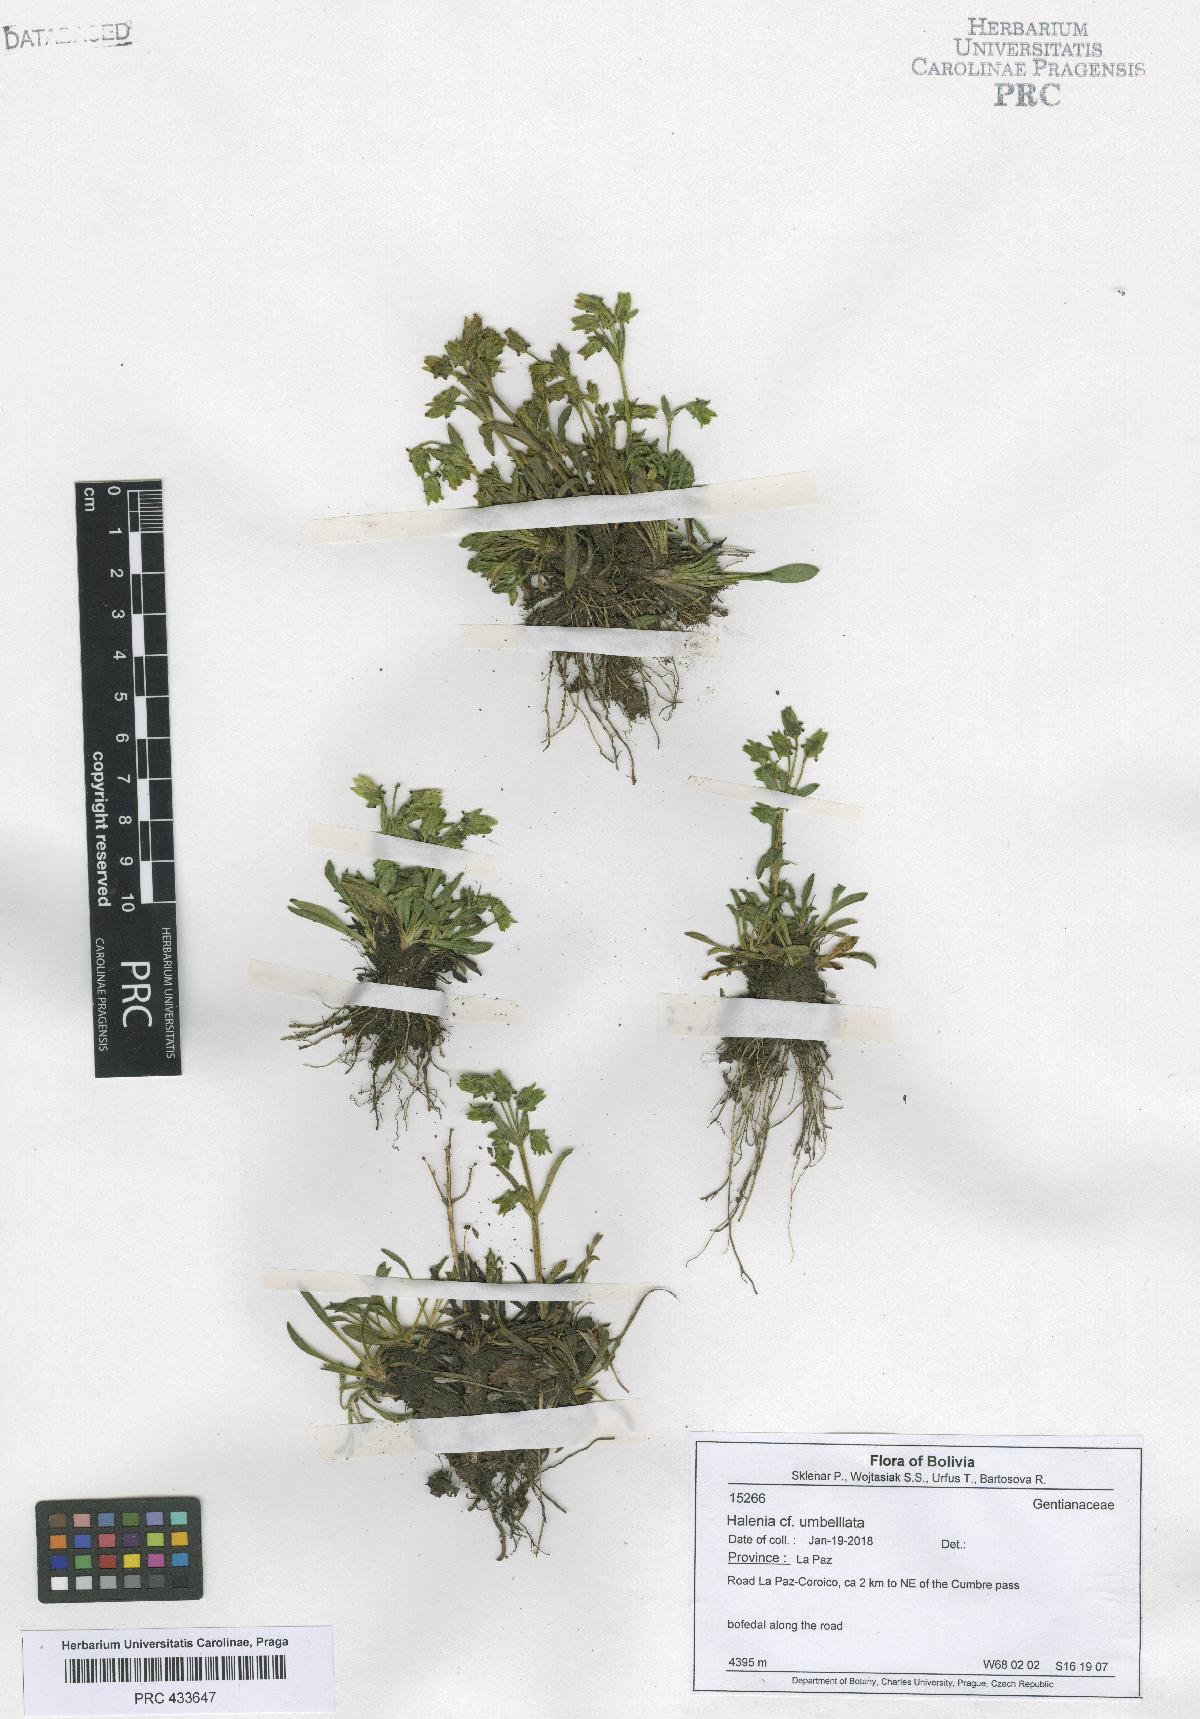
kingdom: Plantae
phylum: Tracheophyta
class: Magnoliopsida
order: Gentianales
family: Gentianaceae
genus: Halenia
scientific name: Halenia umbellata
